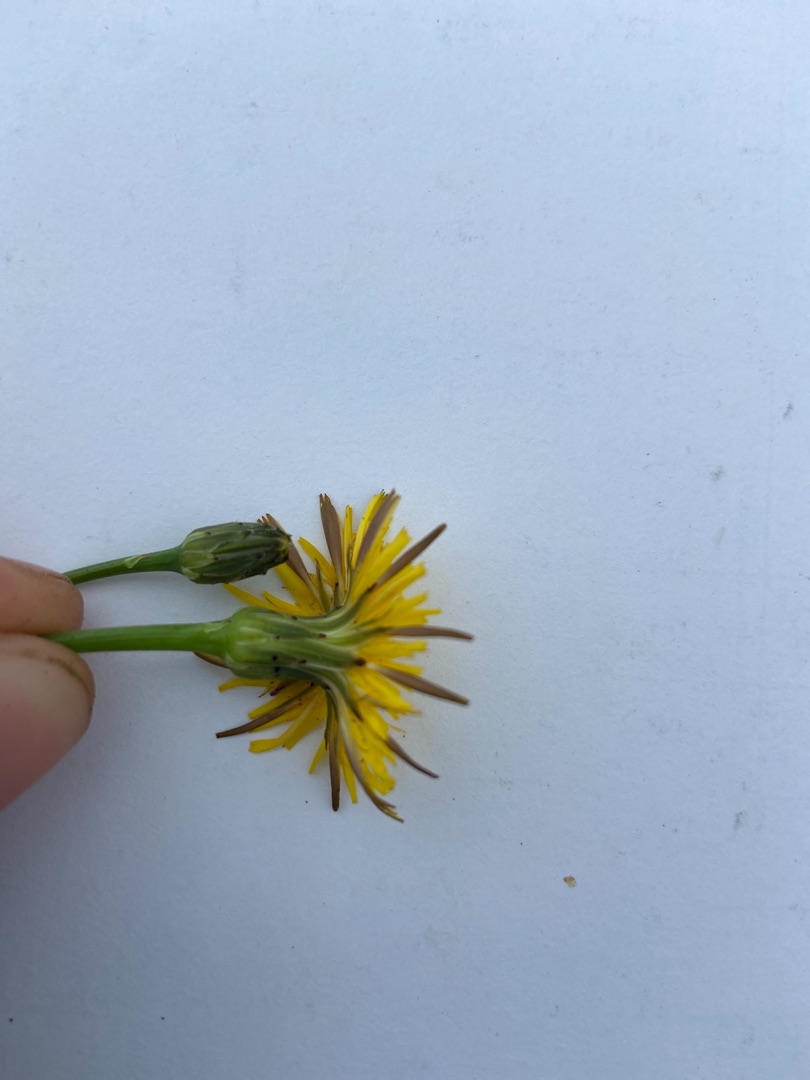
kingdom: Plantae
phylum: Tracheophyta
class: Magnoliopsida
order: Asterales
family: Asteraceae
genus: Hypochaeris
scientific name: Hypochaeris radicata
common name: Almindelig kongepen
